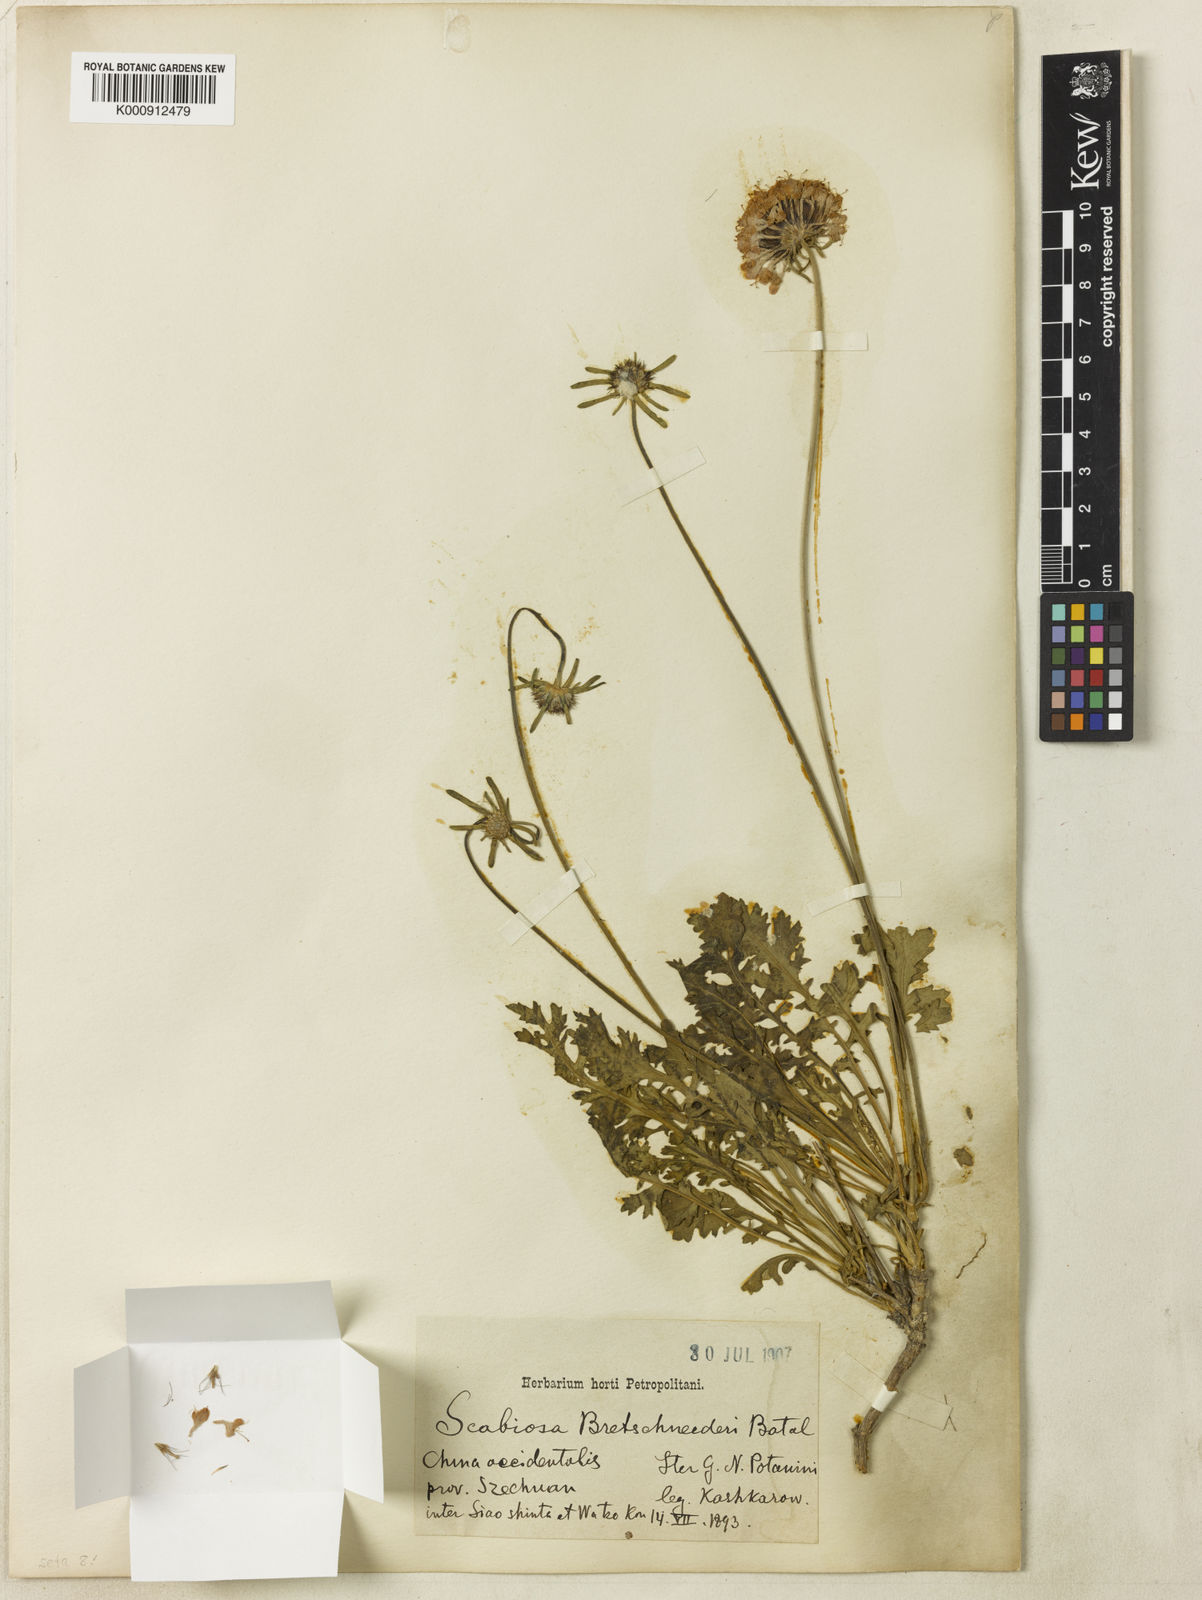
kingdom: Plantae
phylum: Tracheophyta
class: Magnoliopsida
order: Dipsacales
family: Caprifoliaceae
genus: Bassecoia
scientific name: Bassecoia bretschneideri
